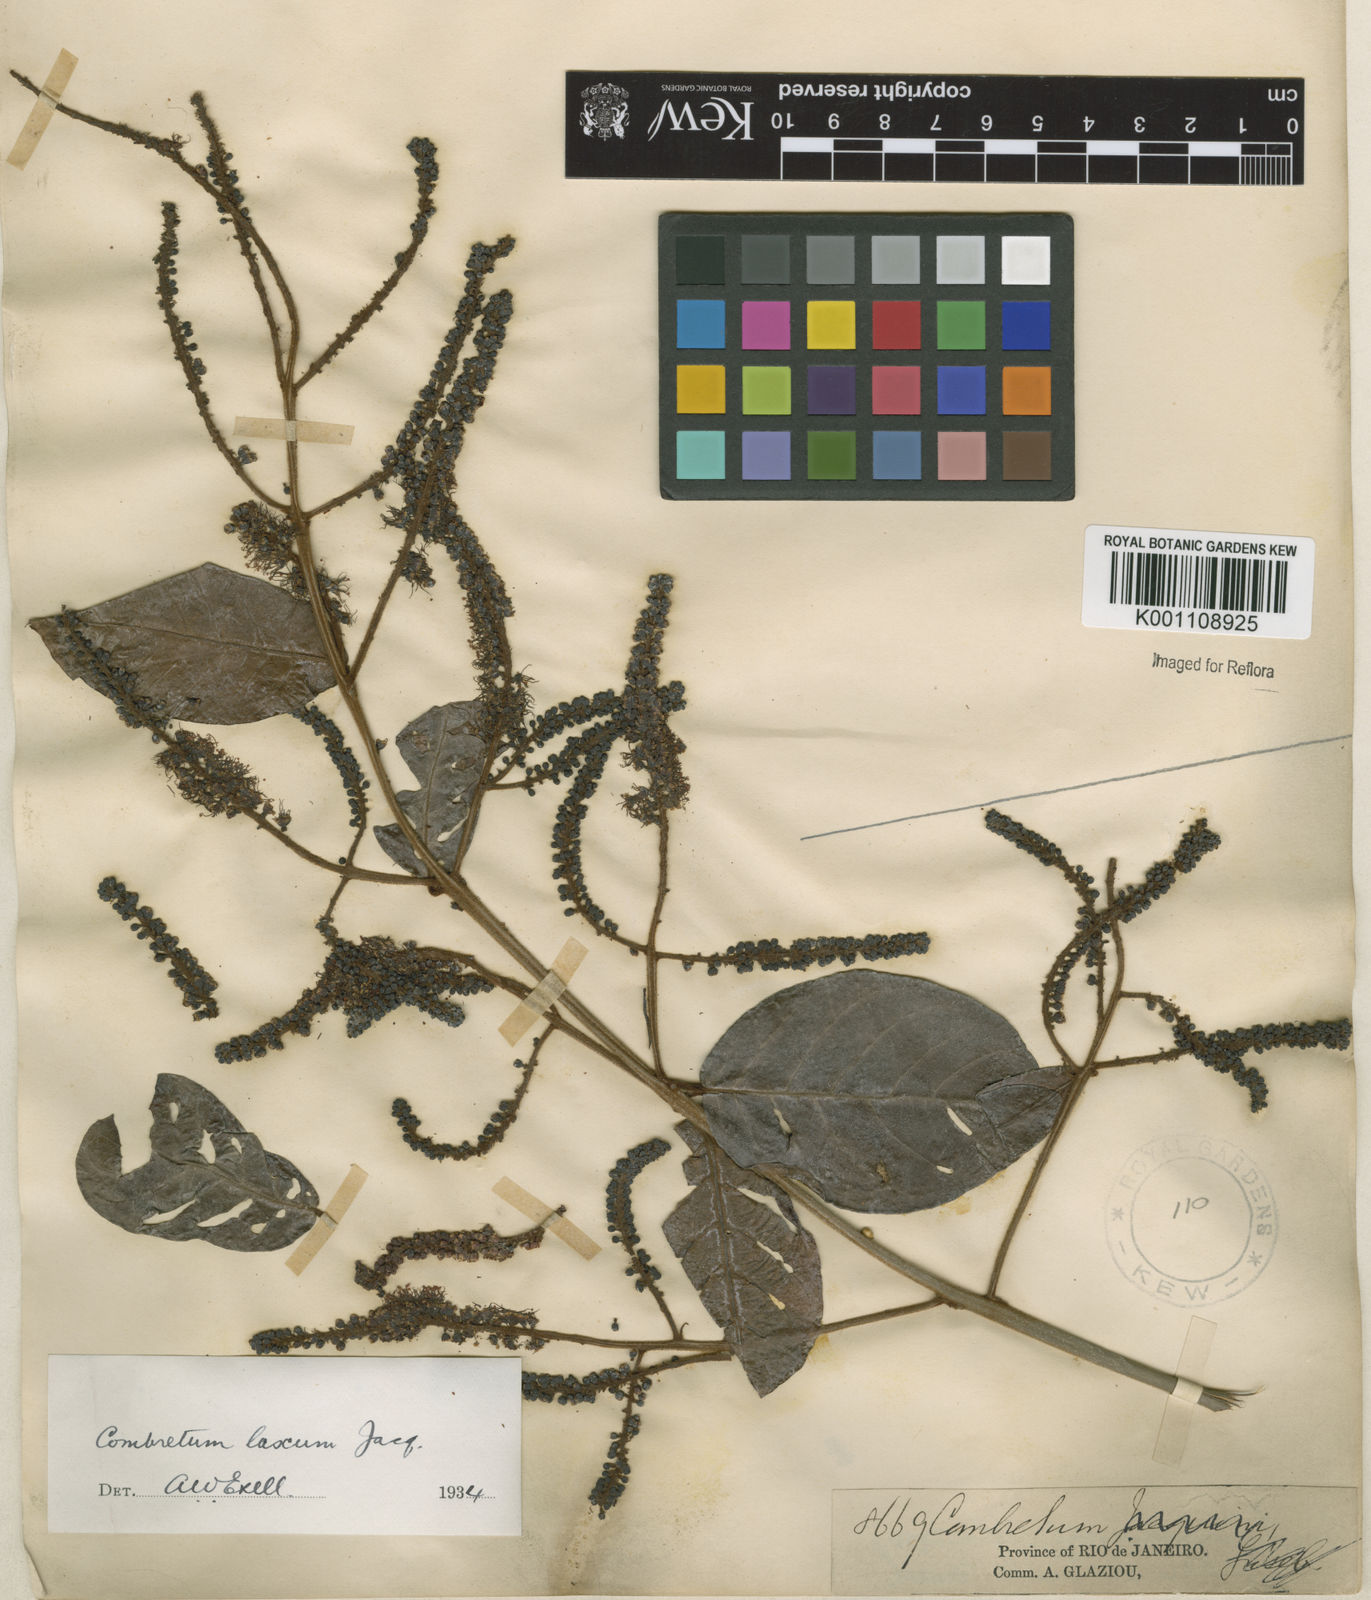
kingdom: Plantae
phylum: Tracheophyta
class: Magnoliopsida
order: Myrtales
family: Combretaceae
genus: Combretum
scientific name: Combretum laxum
